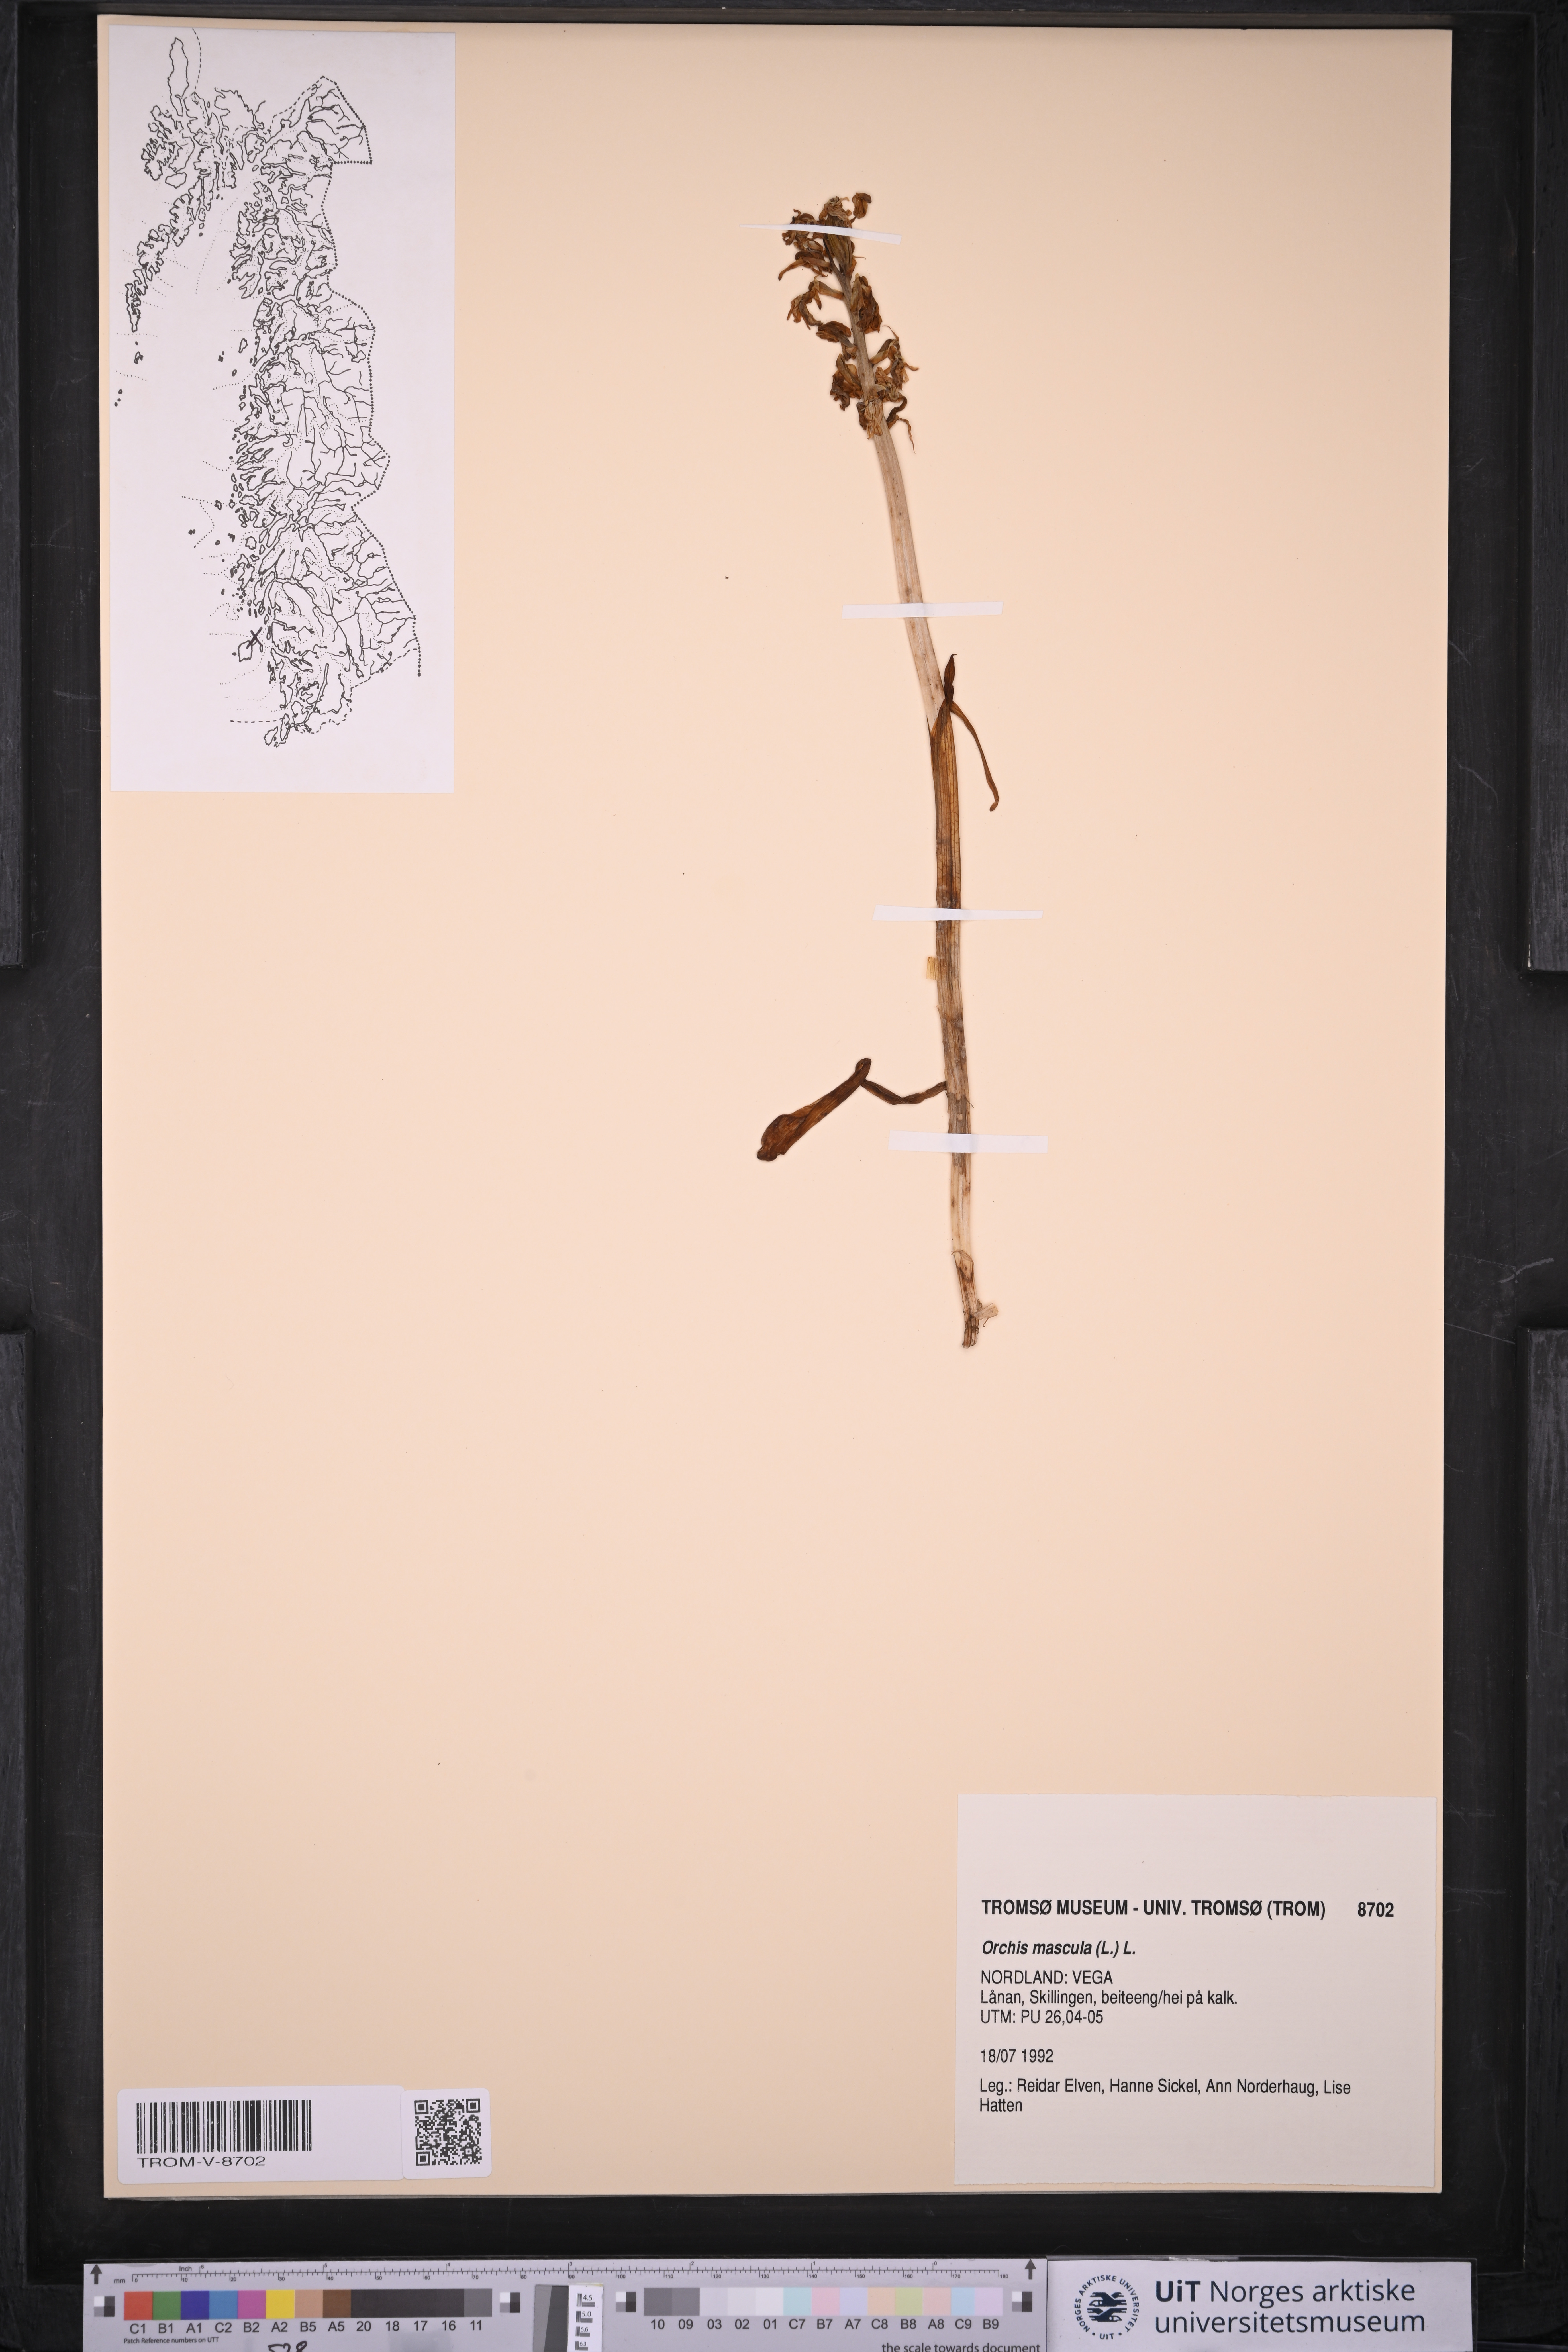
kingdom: Plantae
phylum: Tracheophyta
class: Liliopsida
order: Asparagales
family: Orchidaceae
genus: Orchis
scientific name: Orchis mascula
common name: Early-purple orchid
